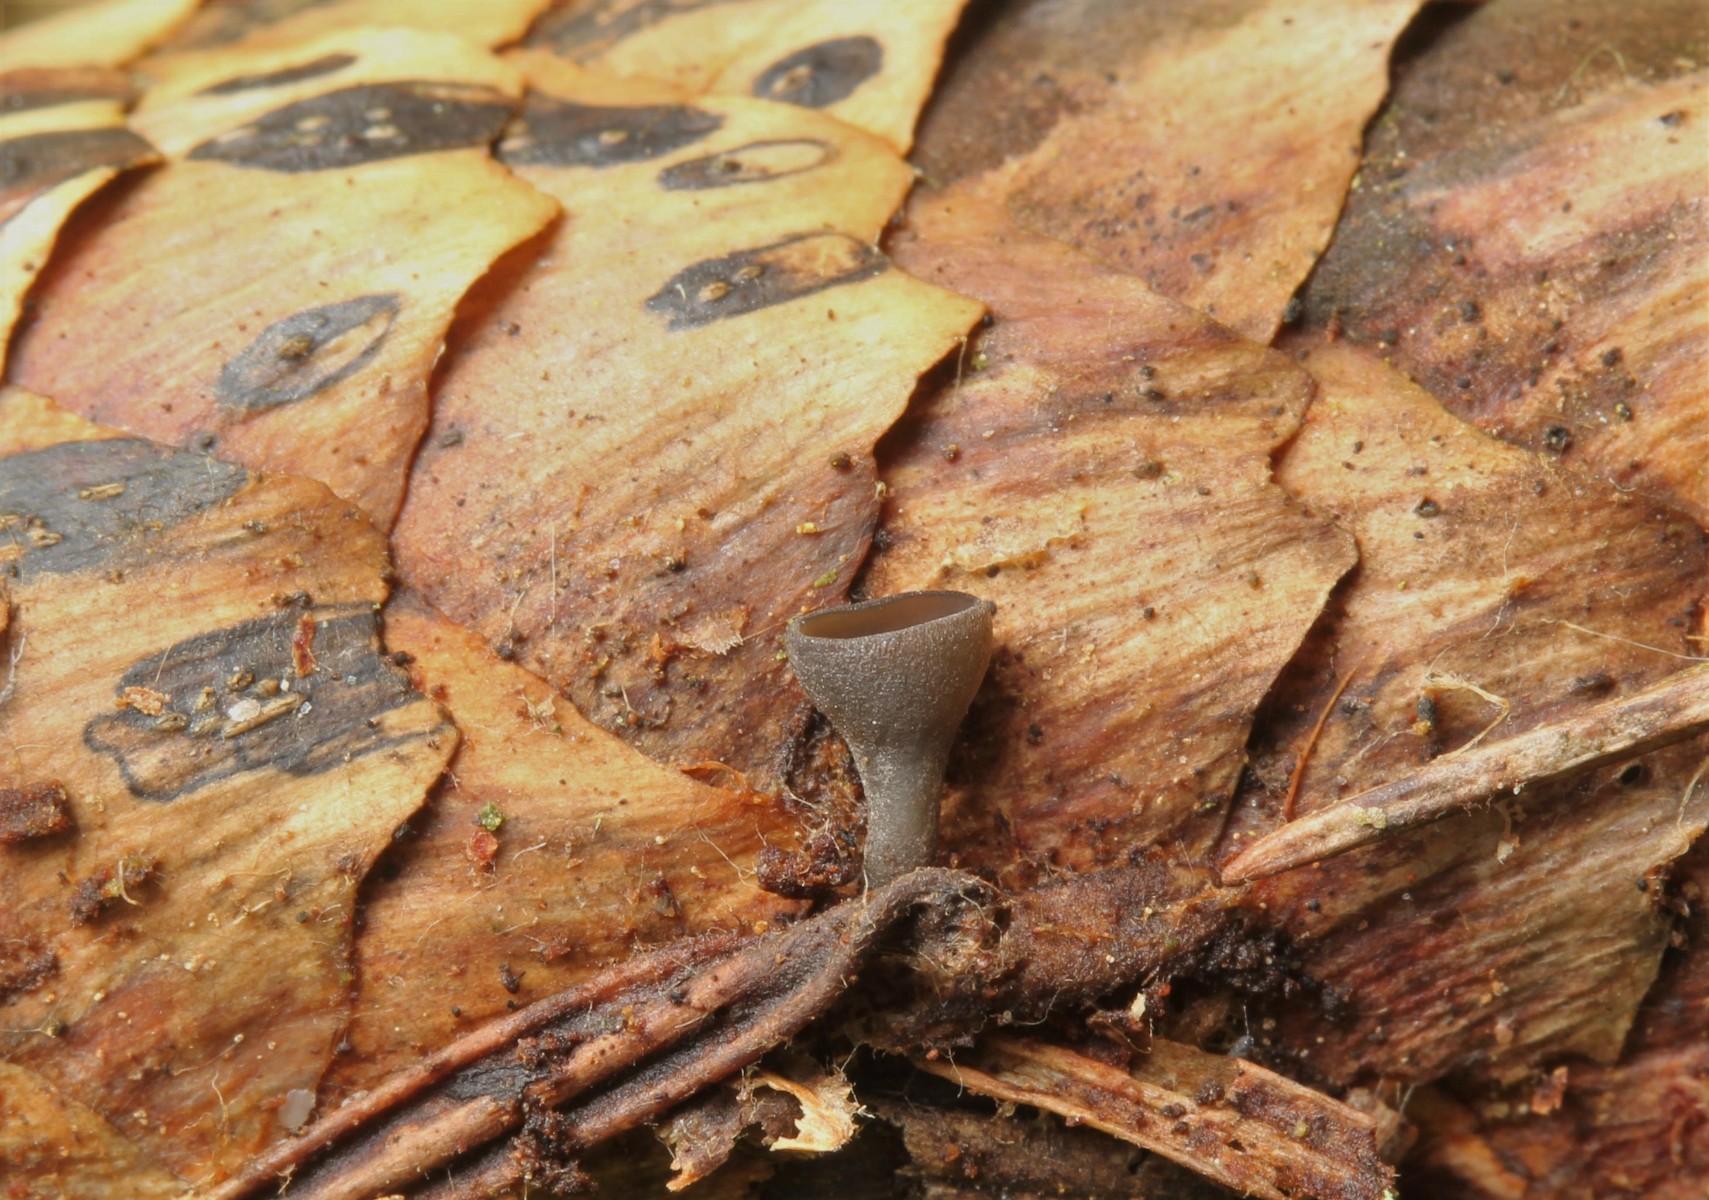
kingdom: Fungi
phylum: Ascomycota
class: Leotiomycetes
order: Helotiales
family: Rutstroemiaceae
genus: Rutstroemia
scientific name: Rutstroemia bulgarioides
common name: kogleskive
